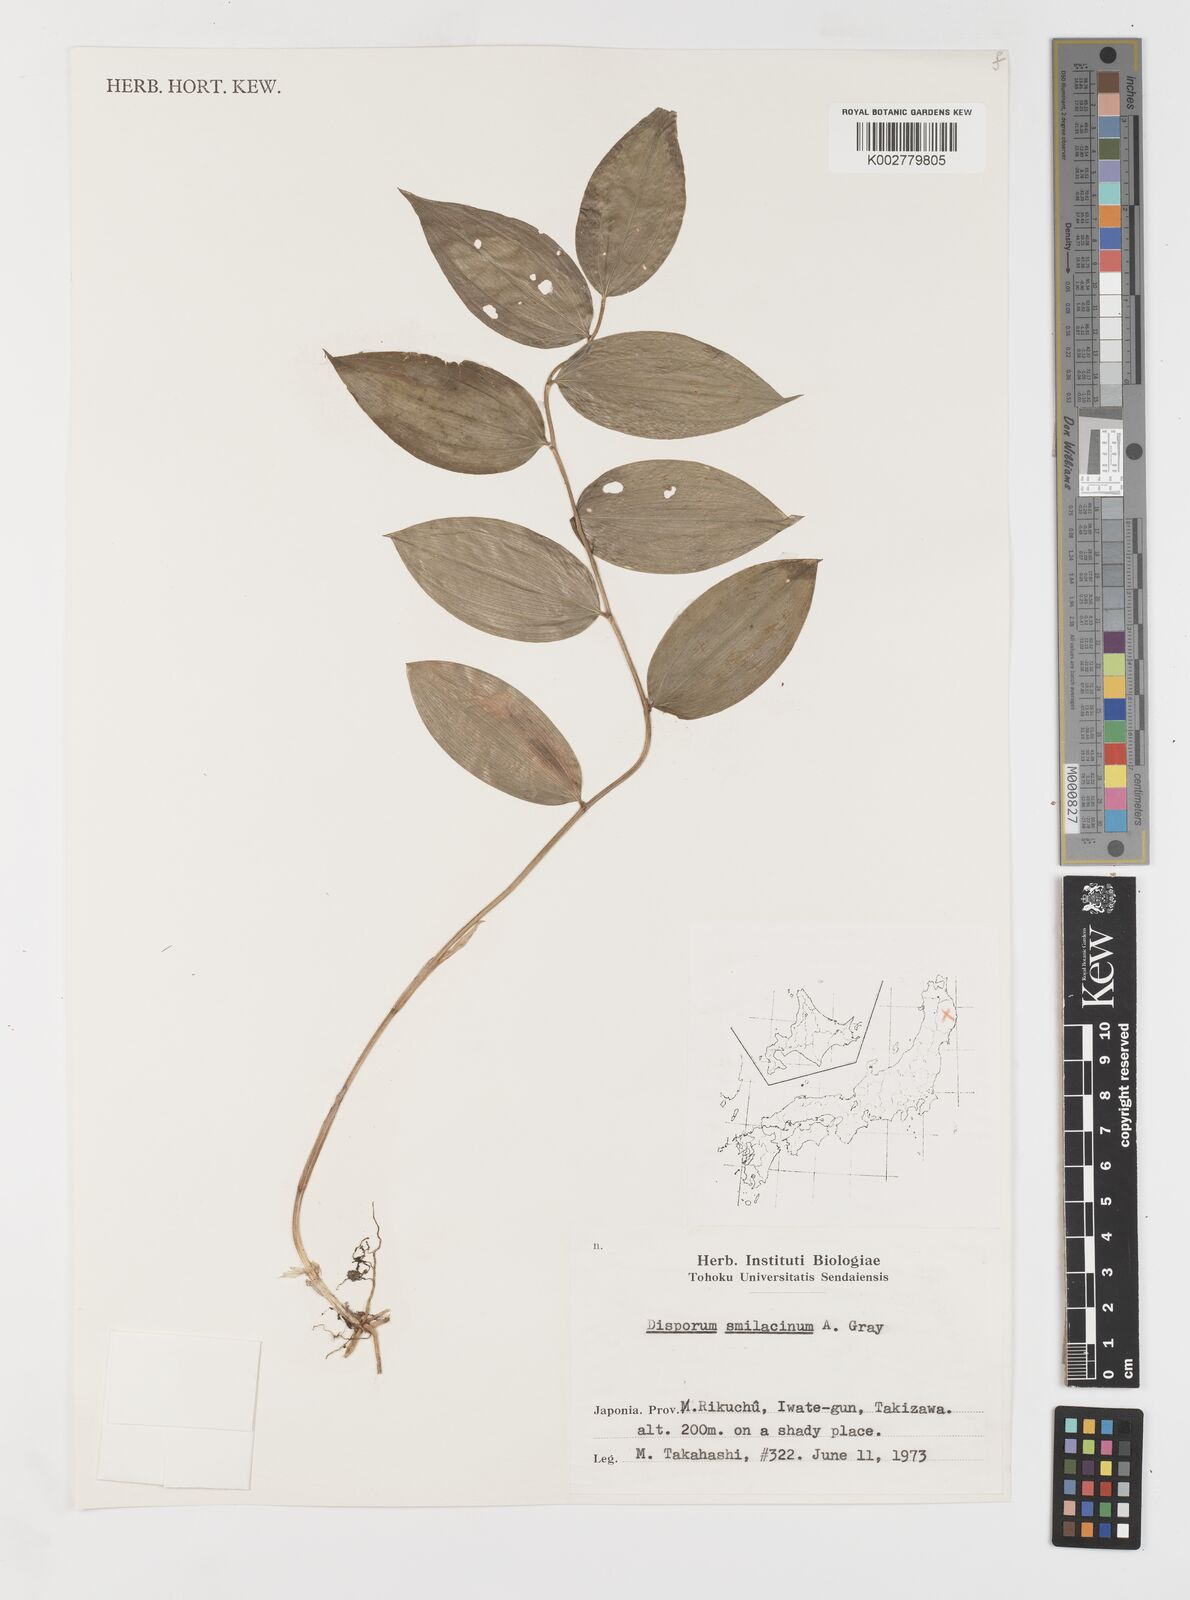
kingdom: Plantae
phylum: Tracheophyta
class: Liliopsida
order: Liliales
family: Colchicaceae
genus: Disporum
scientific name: Disporum smilacinum
